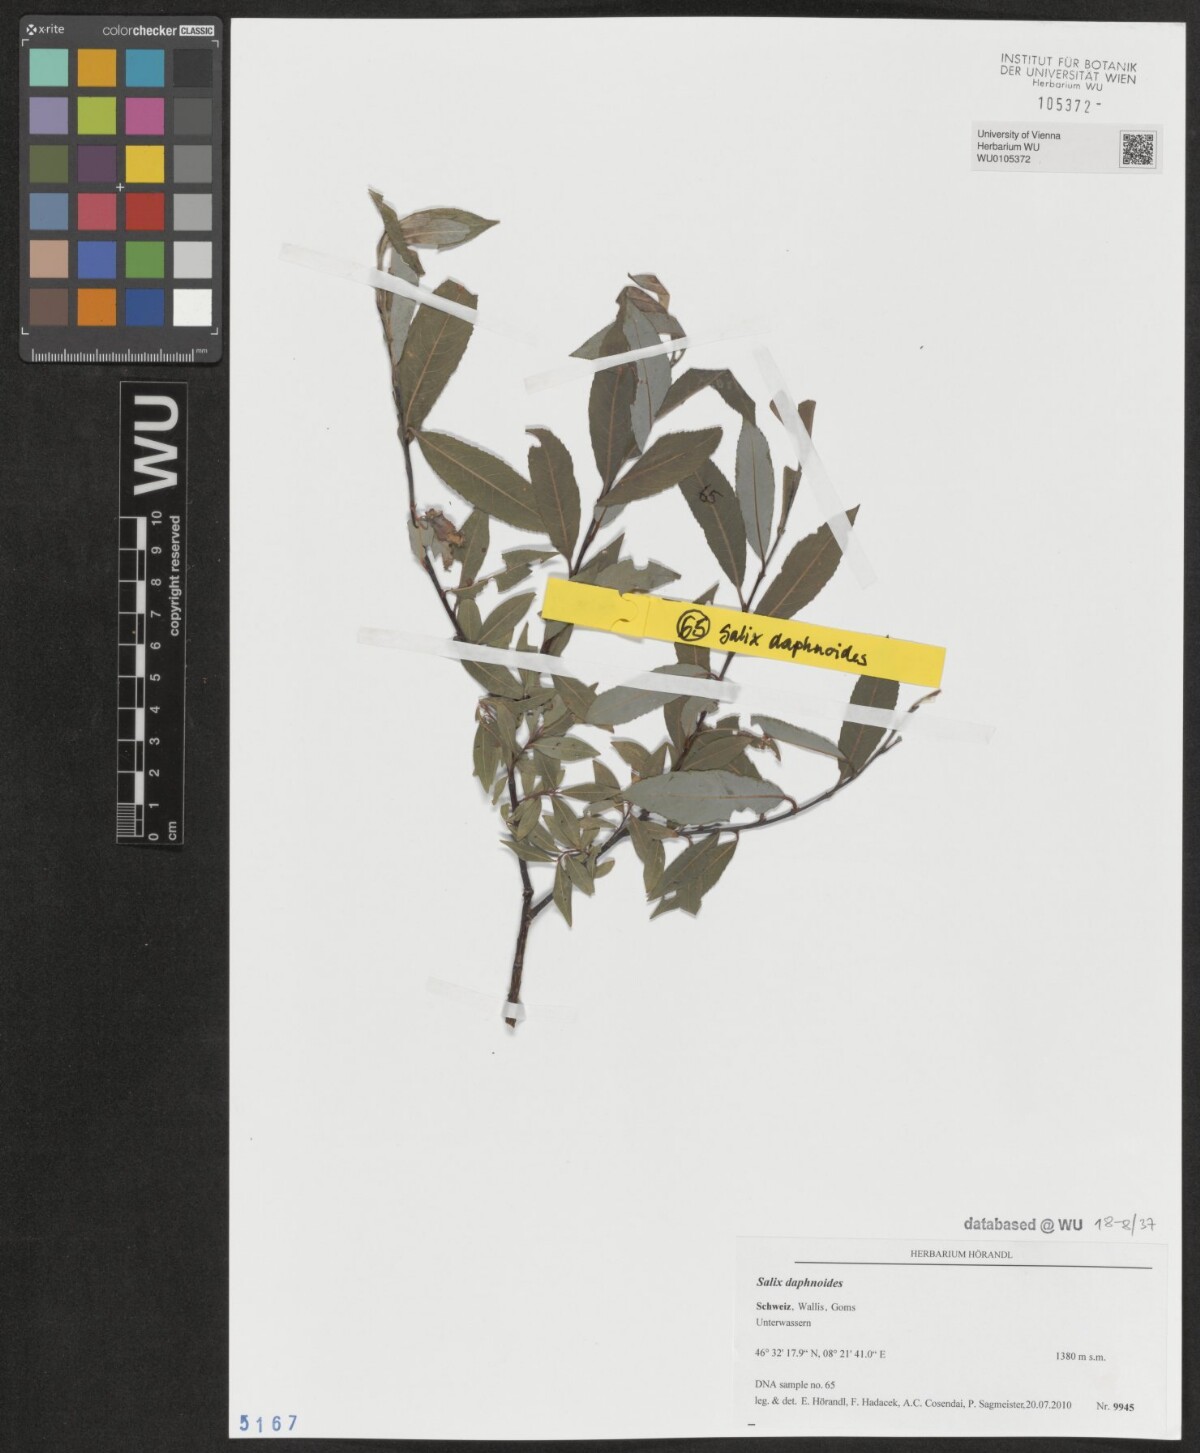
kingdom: Plantae
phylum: Tracheophyta
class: Magnoliopsida
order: Malpighiales
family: Salicaceae
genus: Salix
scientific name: Salix daphnoides
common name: European violet-willow
